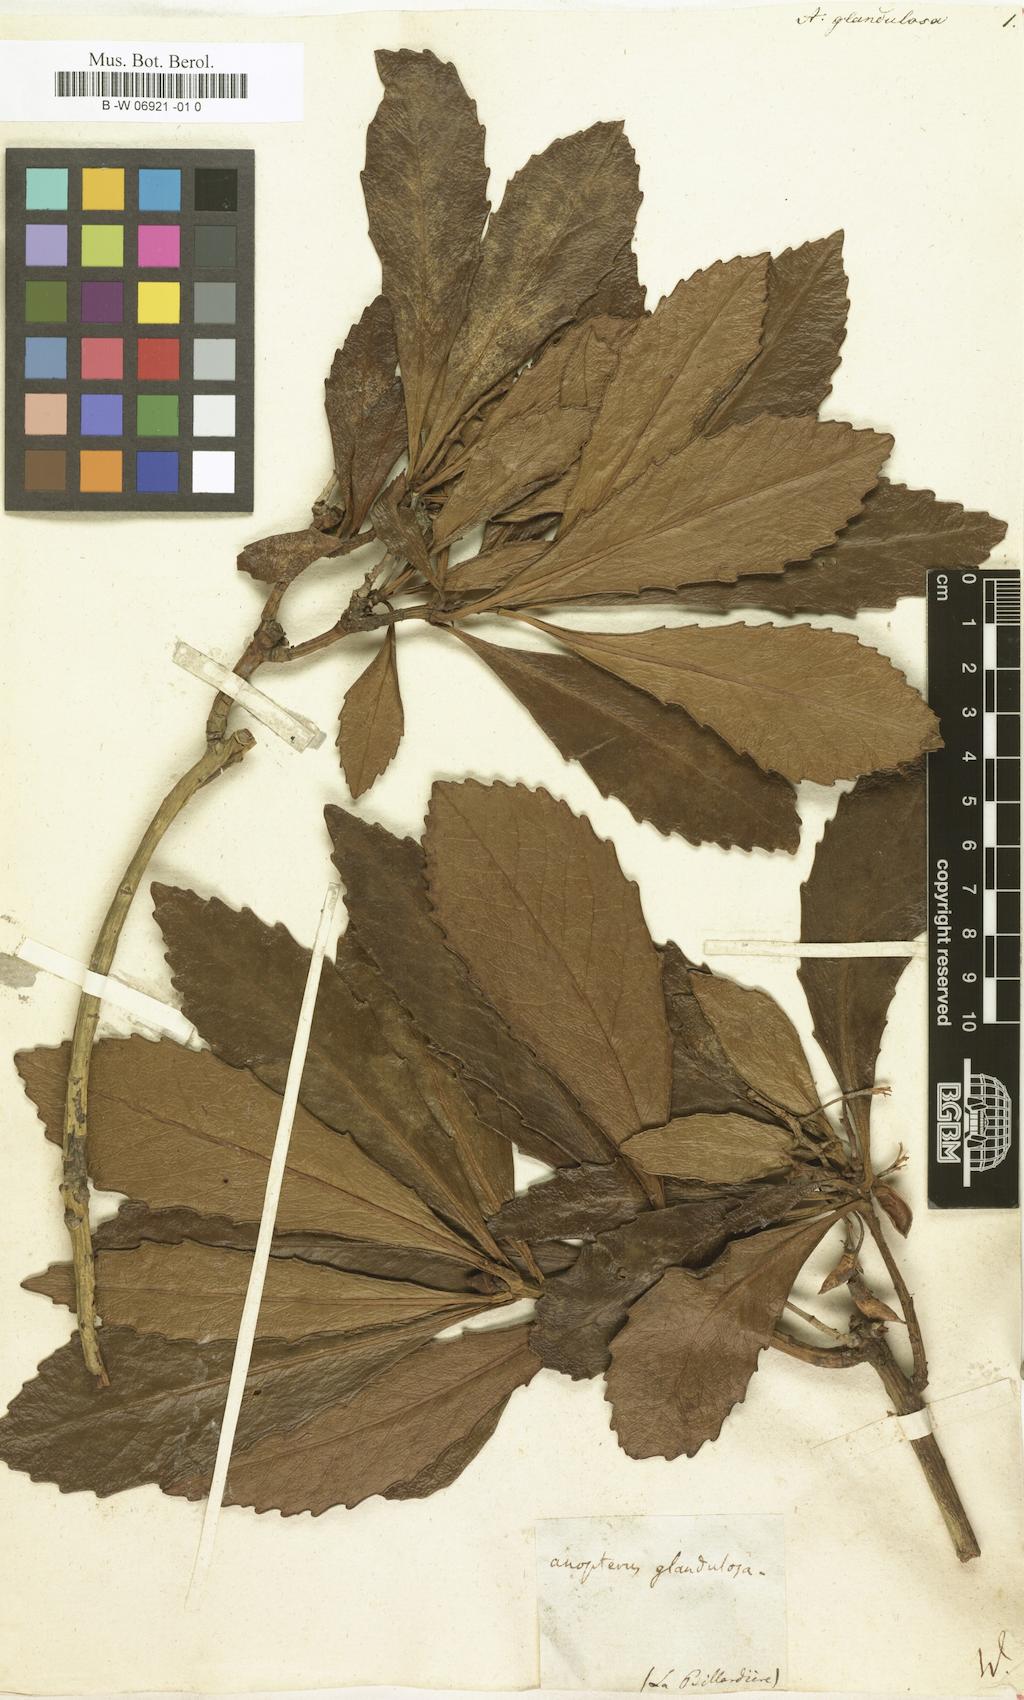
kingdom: Plantae
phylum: Tracheophyta
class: Magnoliopsida
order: Escalloniales
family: Escalloniaceae
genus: Anopterus
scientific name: Anopterus glandulosus
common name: Tasmanian-laurel
